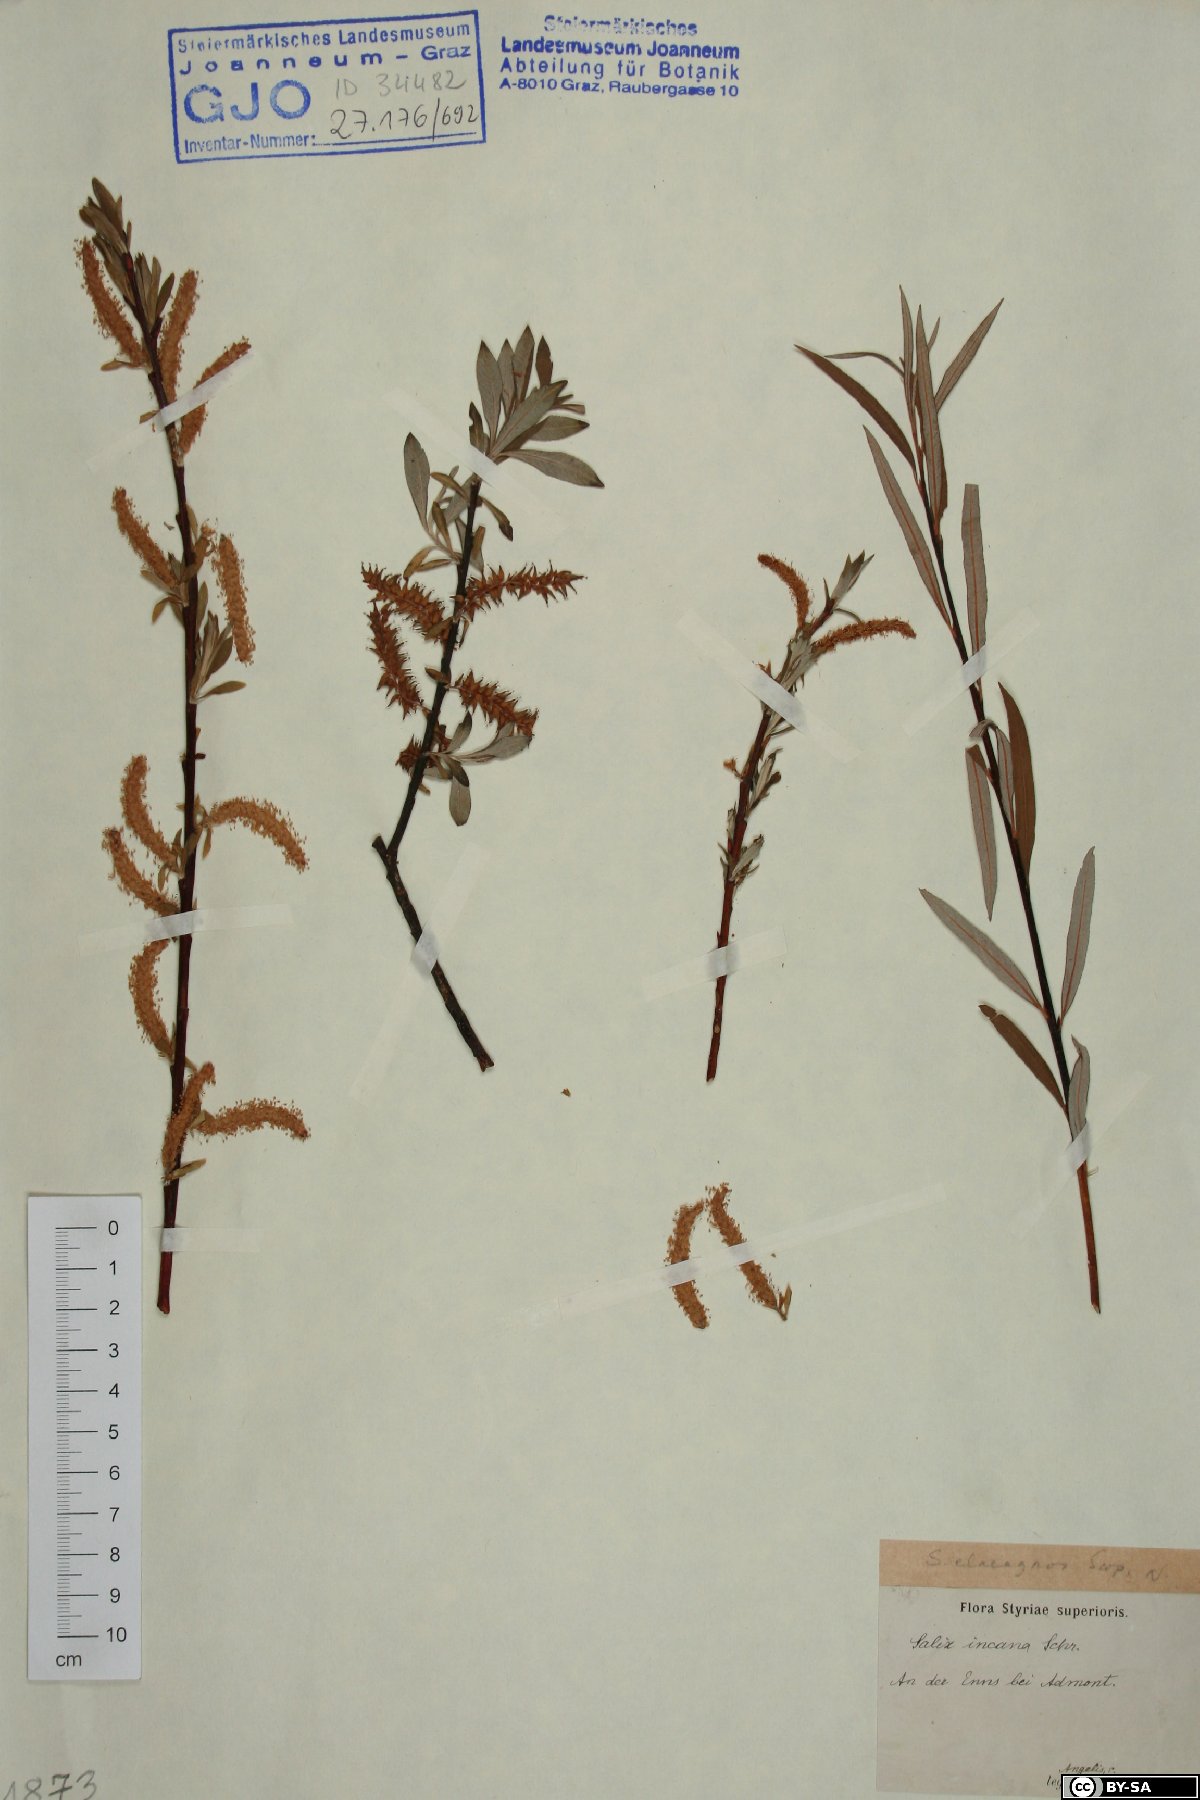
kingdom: Plantae
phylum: Tracheophyta
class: Magnoliopsida
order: Malpighiales
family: Salicaceae
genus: Salix
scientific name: Salix eleagnos
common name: Elaeagnus willow
